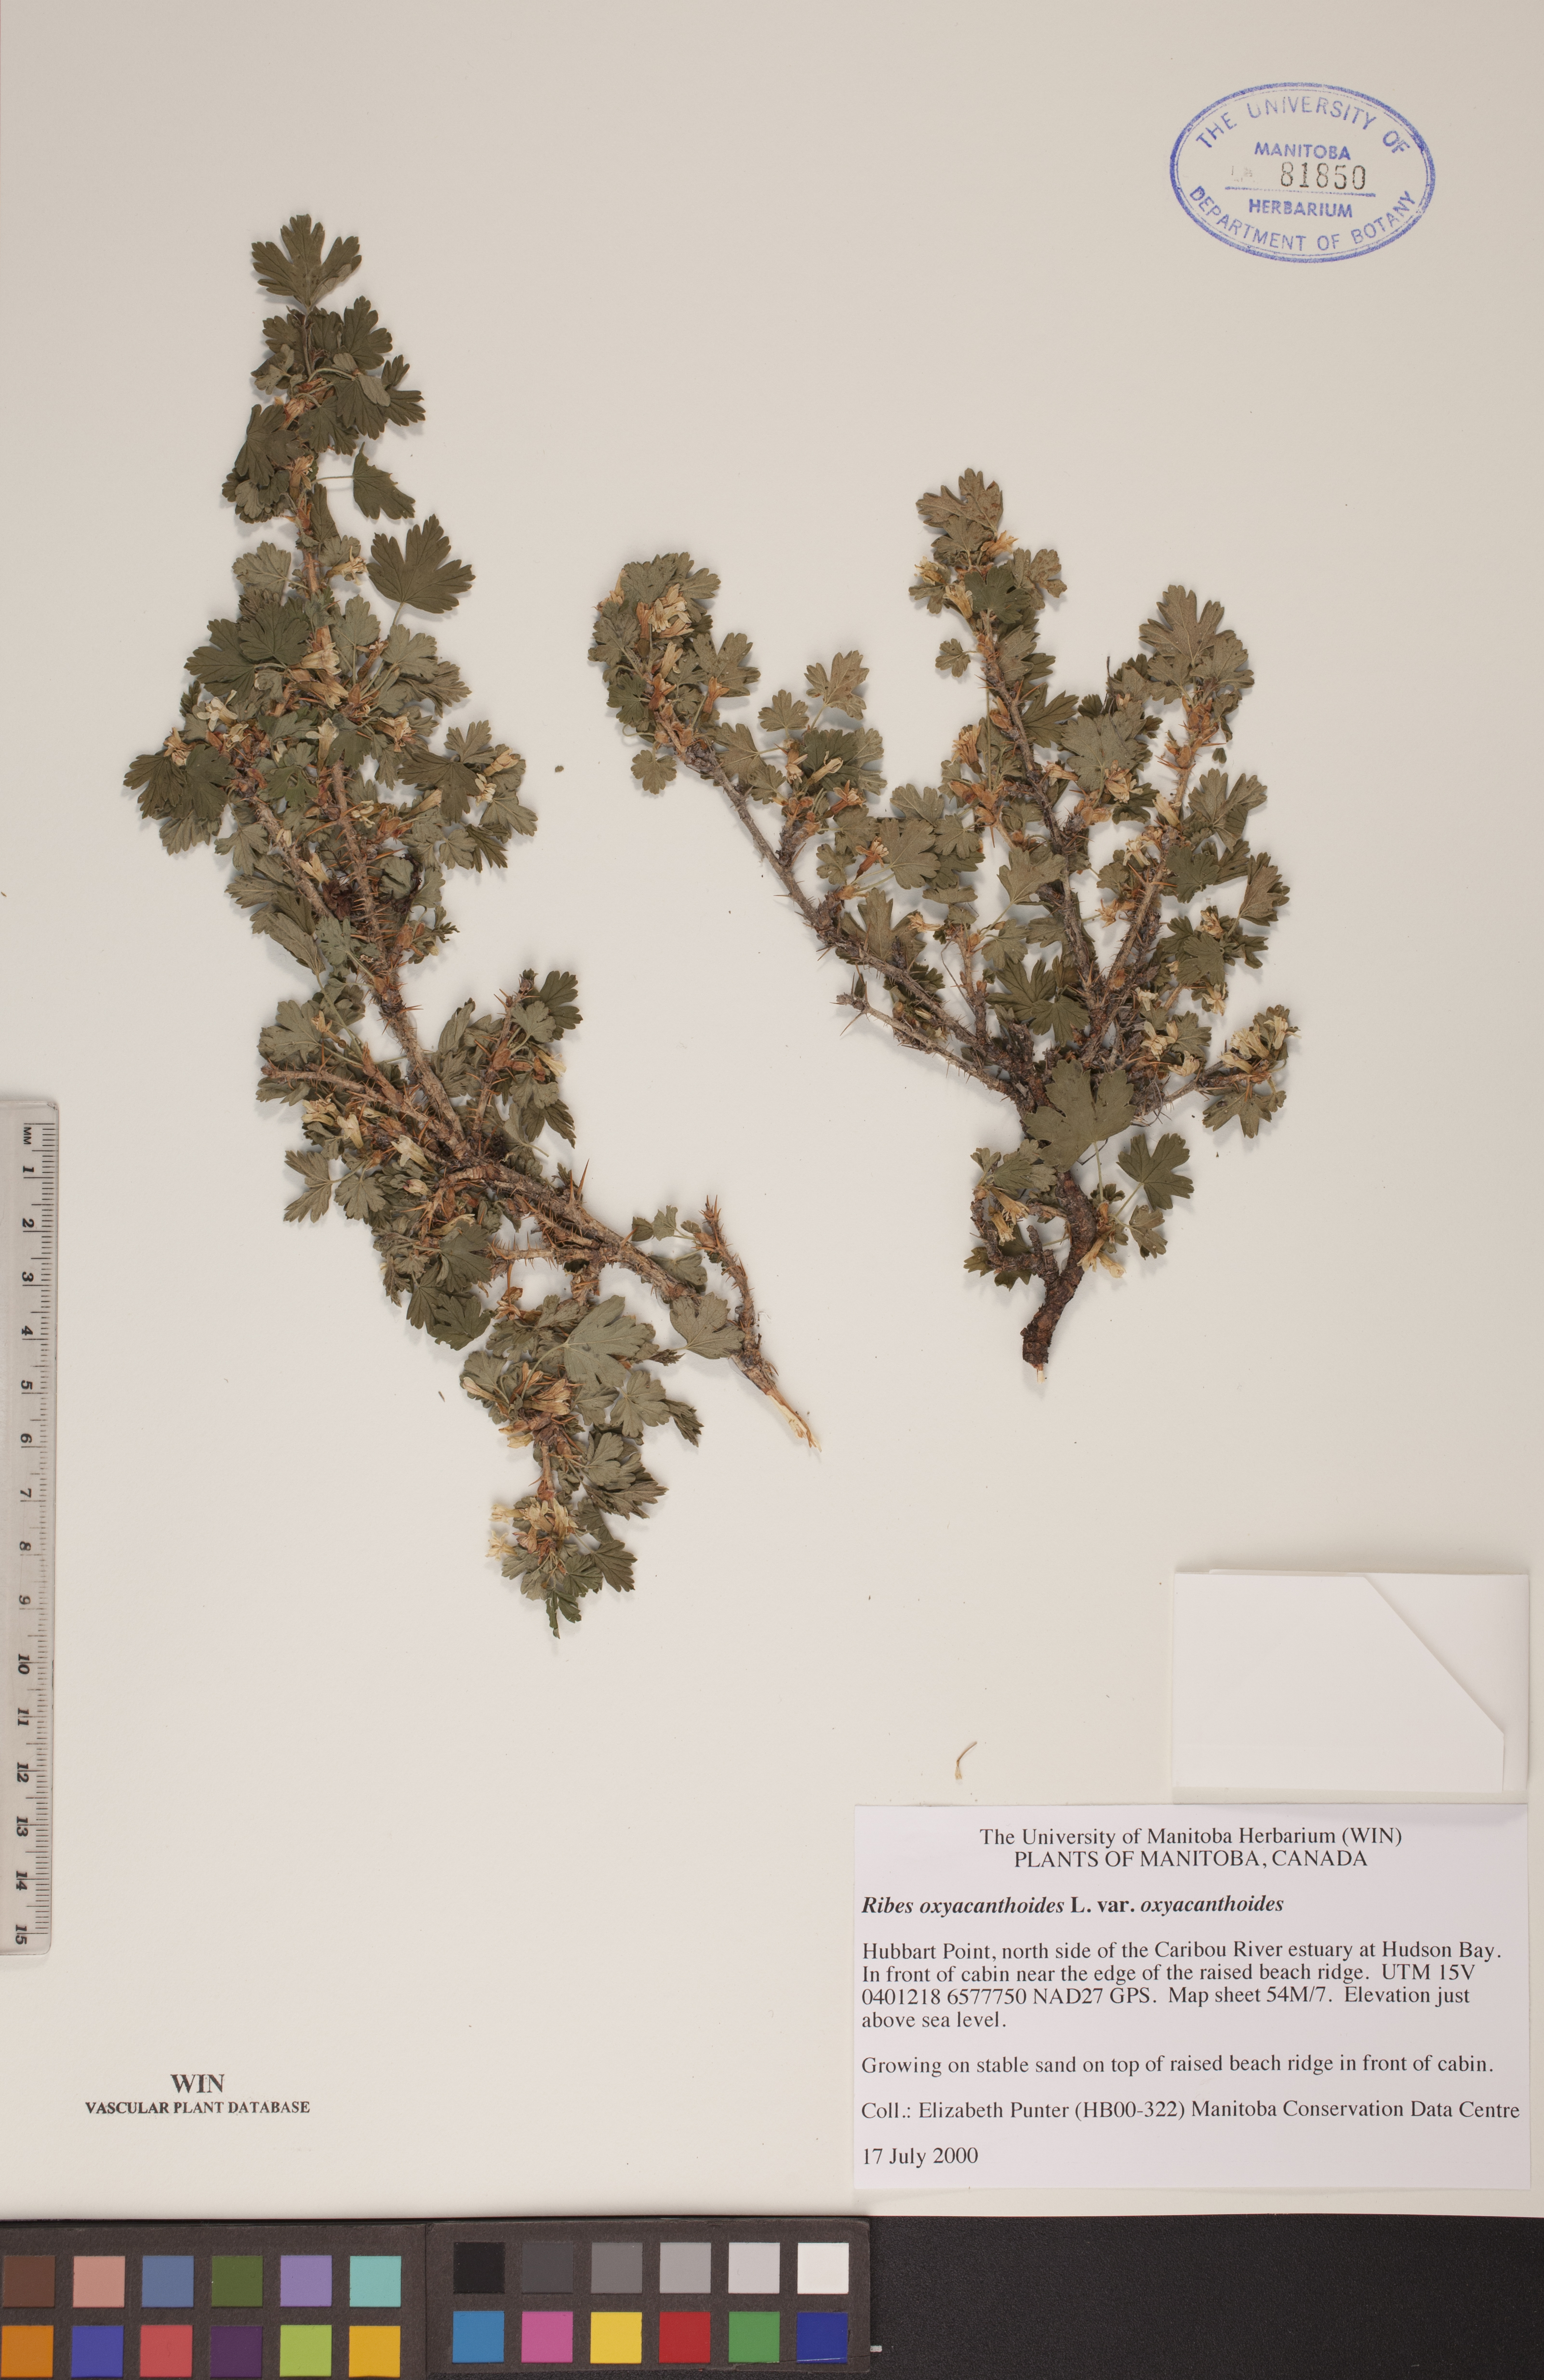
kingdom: Plantae
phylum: Tracheophyta
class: Magnoliopsida
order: Saxifragales
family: Grossulariaceae
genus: Ribes
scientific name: Ribes oxyacanthoides
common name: Northern gooseberry
